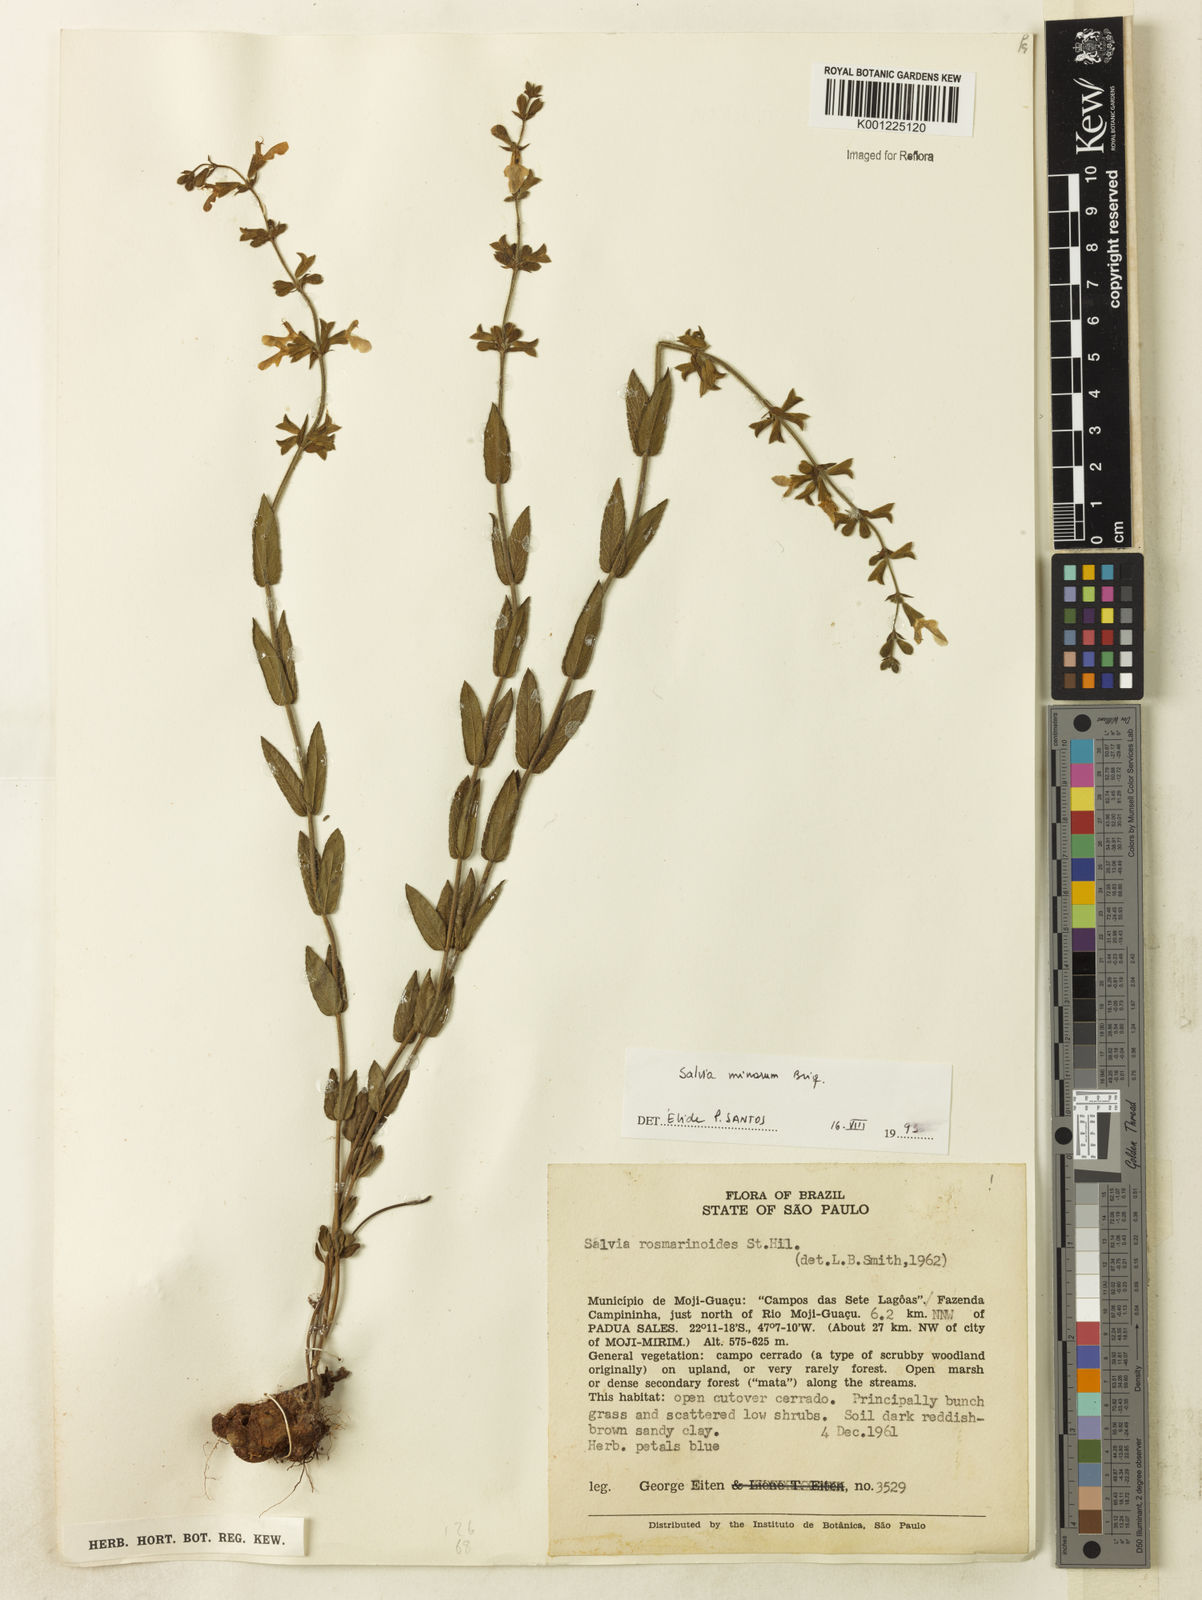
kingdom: Plantae
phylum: Tracheophyta
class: Magnoliopsida
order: Lamiales
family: Lamiaceae
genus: Salvia
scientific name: Salvia minarum
